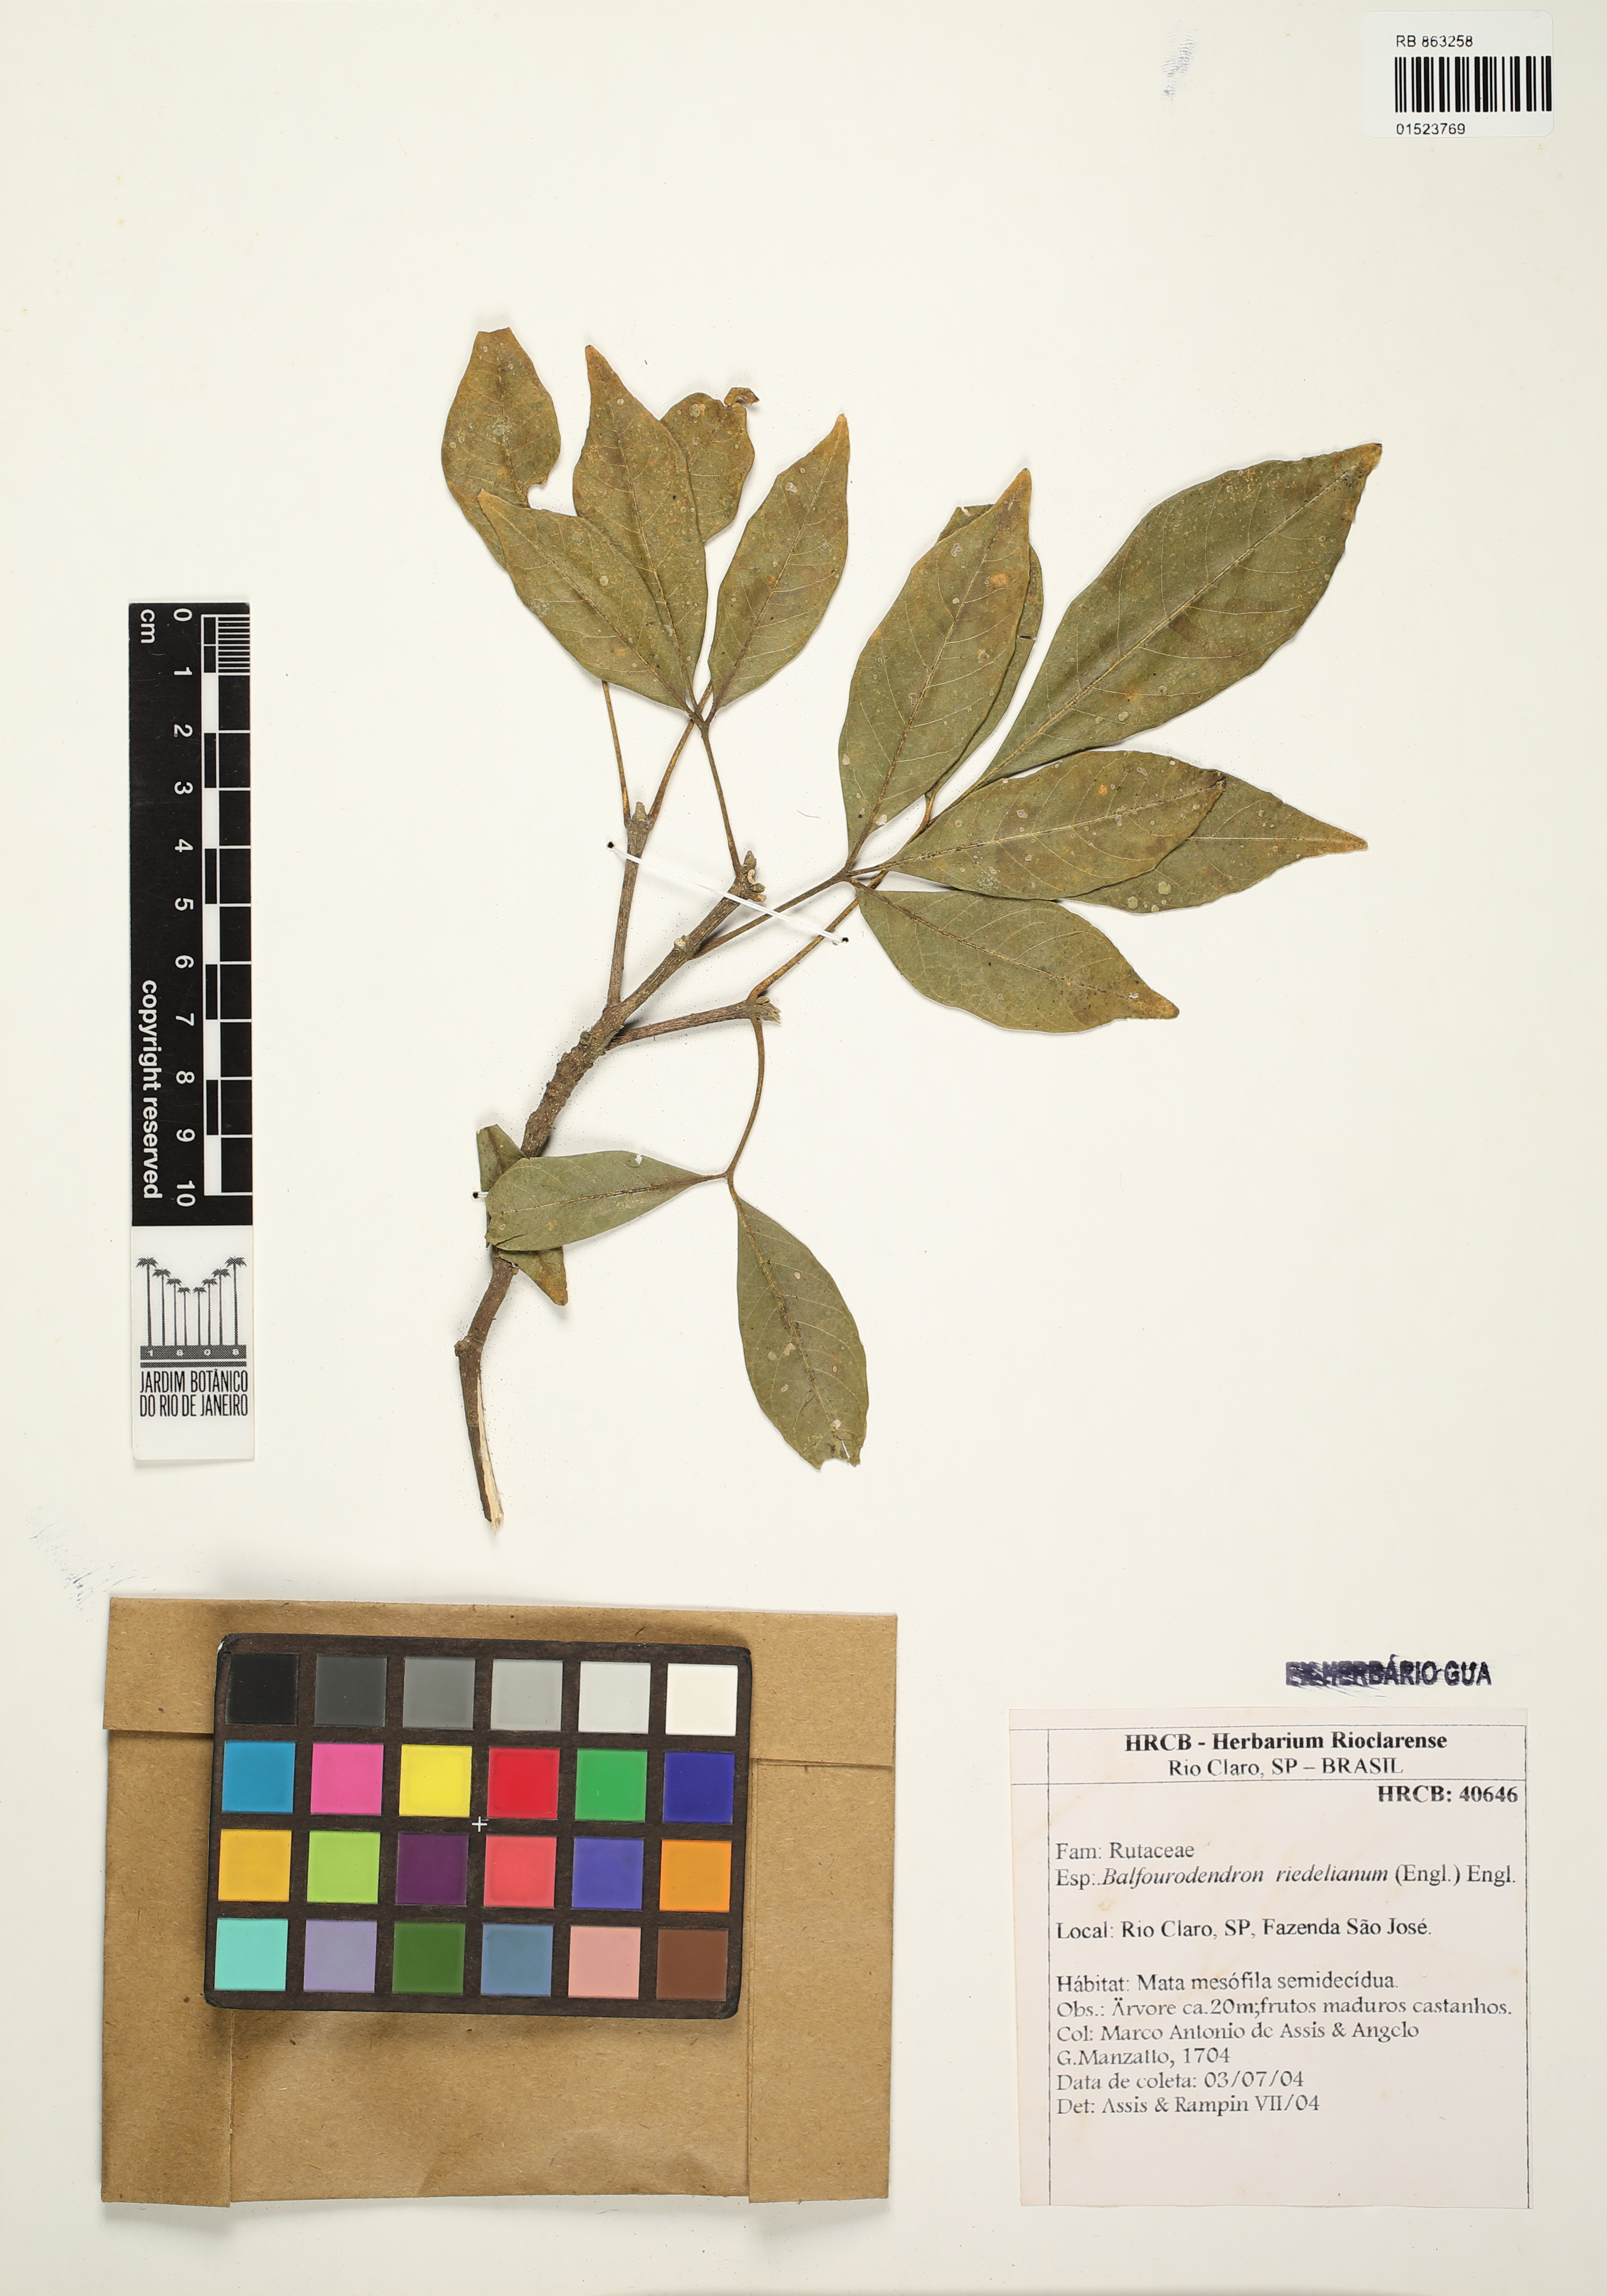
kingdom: Plantae
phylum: Tracheophyta
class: Magnoliopsida
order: Sapindales
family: Rutaceae
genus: Balfourodendron
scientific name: Balfourodendron riedelianum
